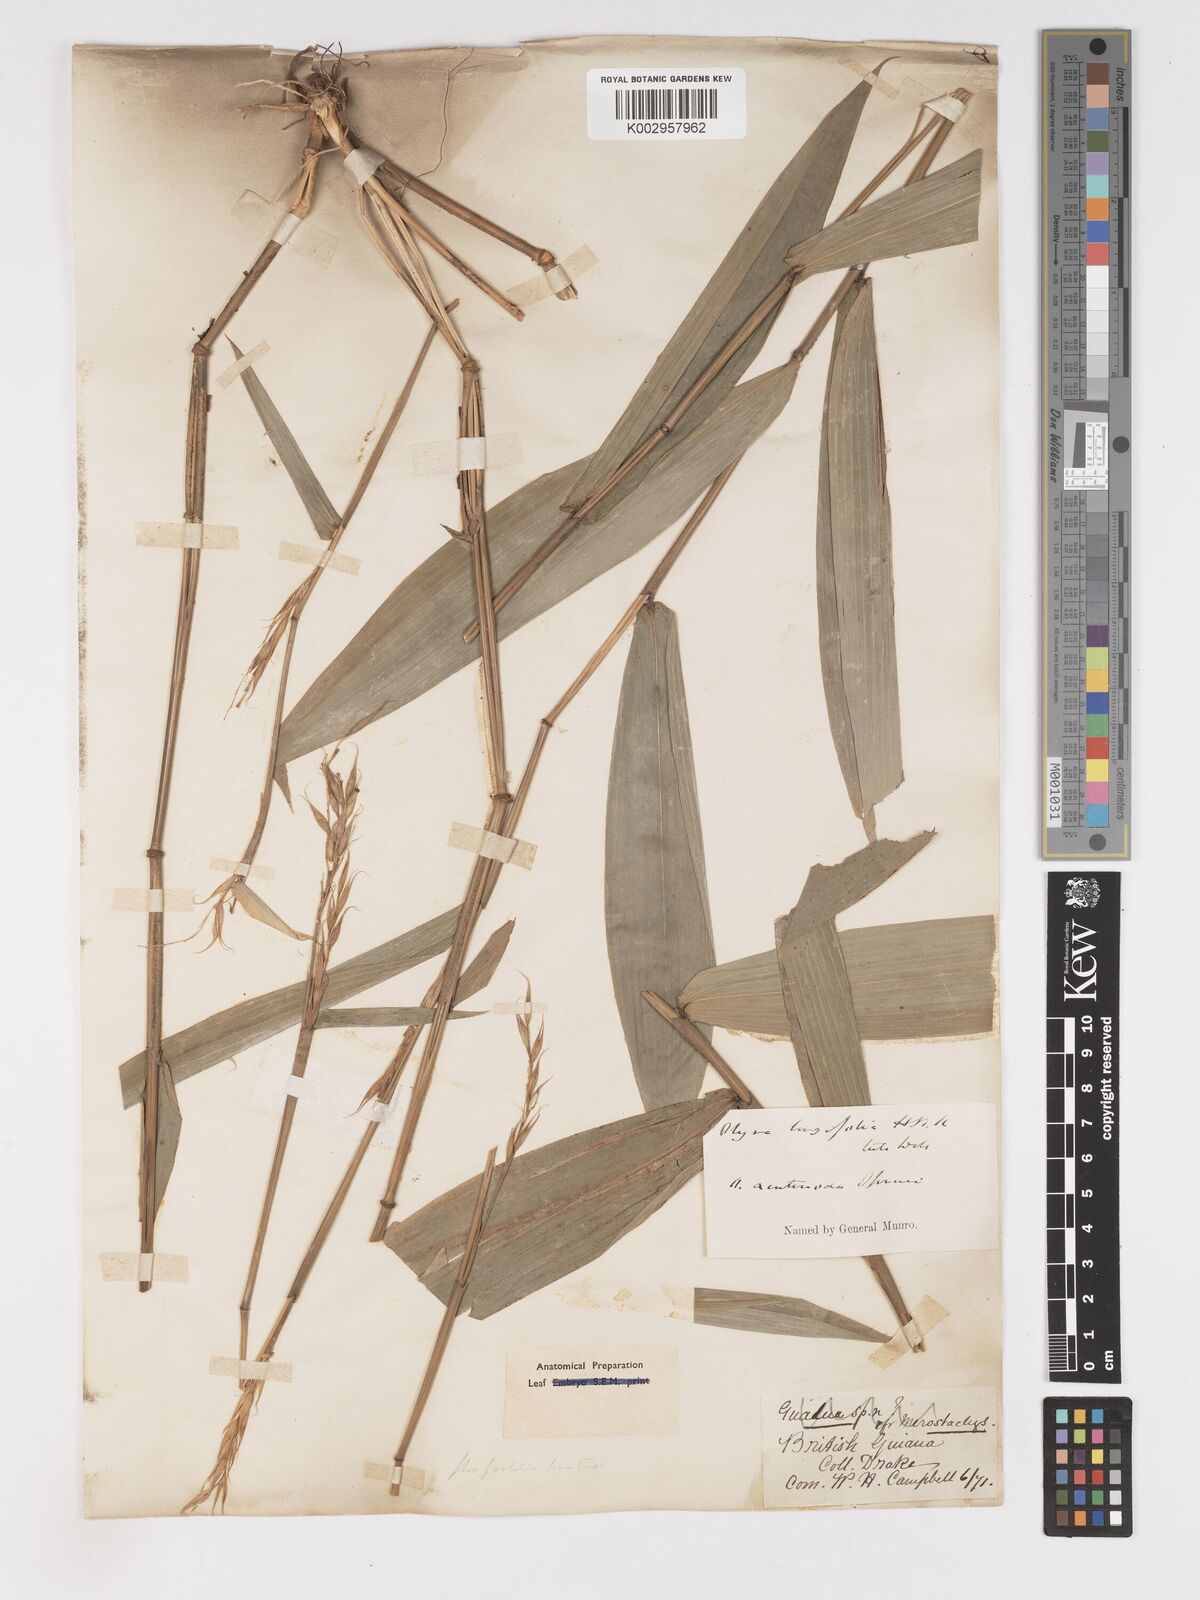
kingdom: Plantae
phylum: Tracheophyta
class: Liliopsida
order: Poales
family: Poaceae
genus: Olyra
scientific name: Olyra longifolia
